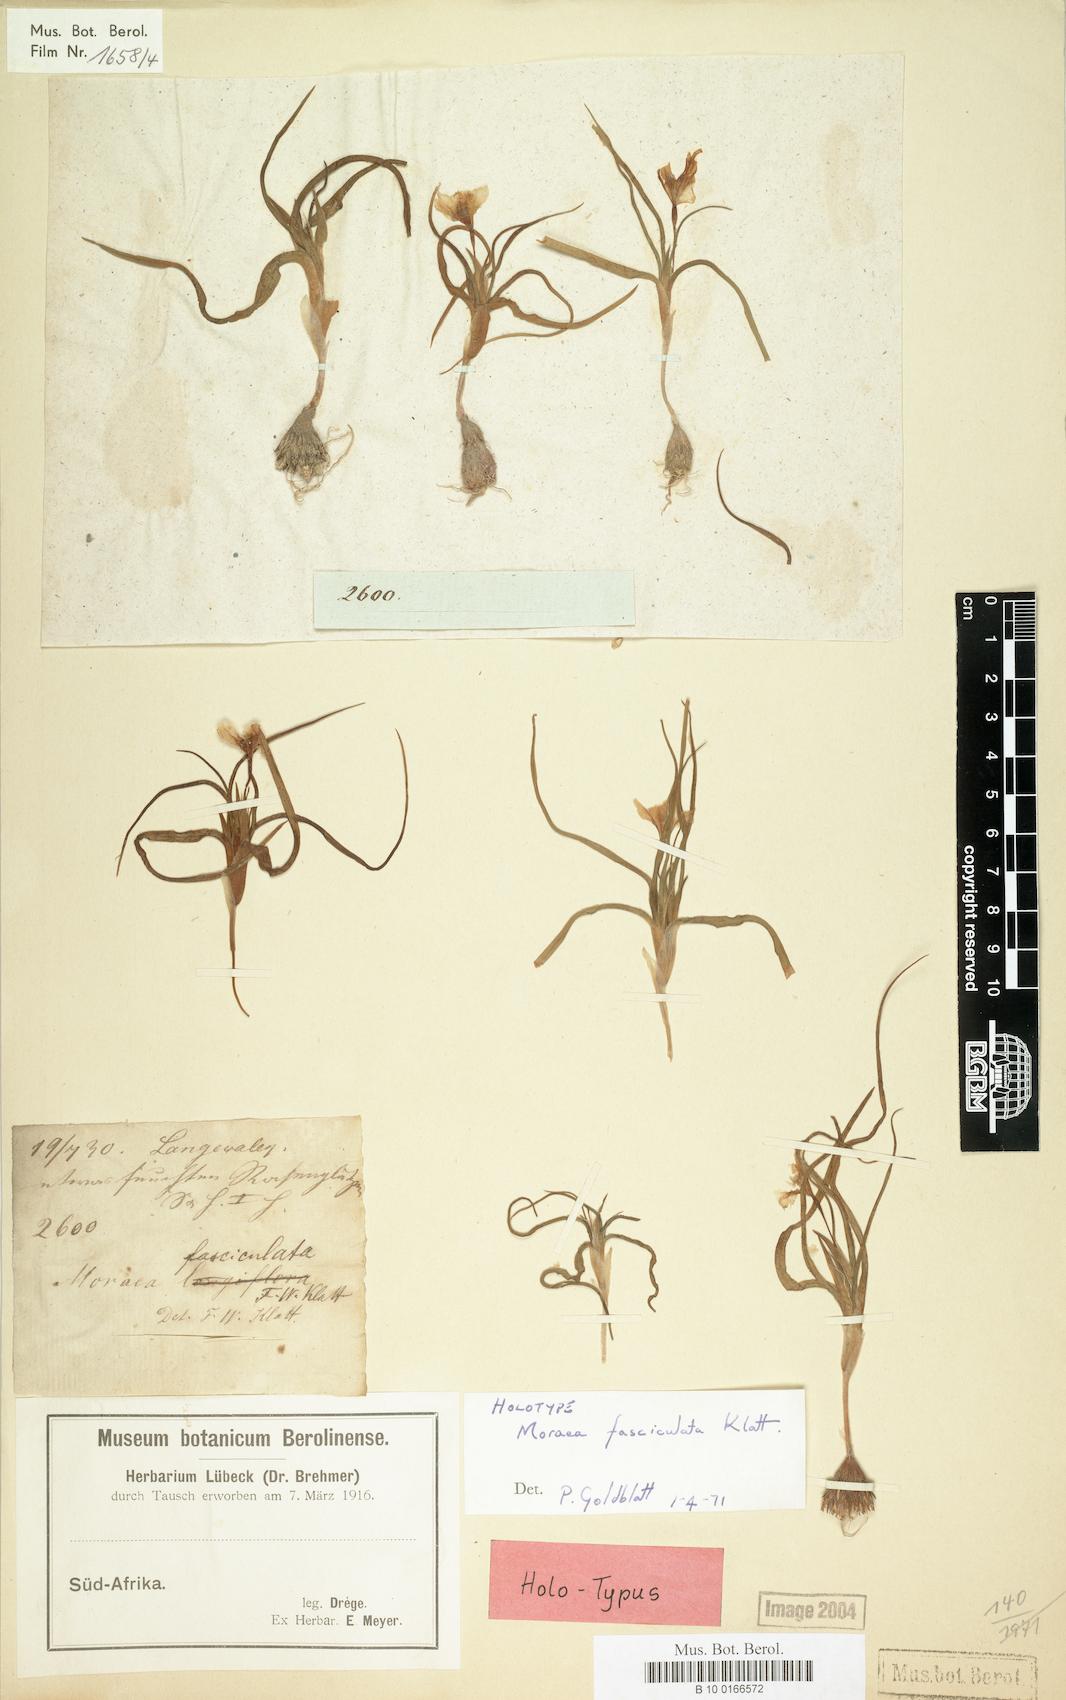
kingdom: Plantae
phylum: Tracheophyta
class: Liliopsida
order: Asparagales
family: Iridaceae
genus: Moraea
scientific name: Moraea falcifolia
